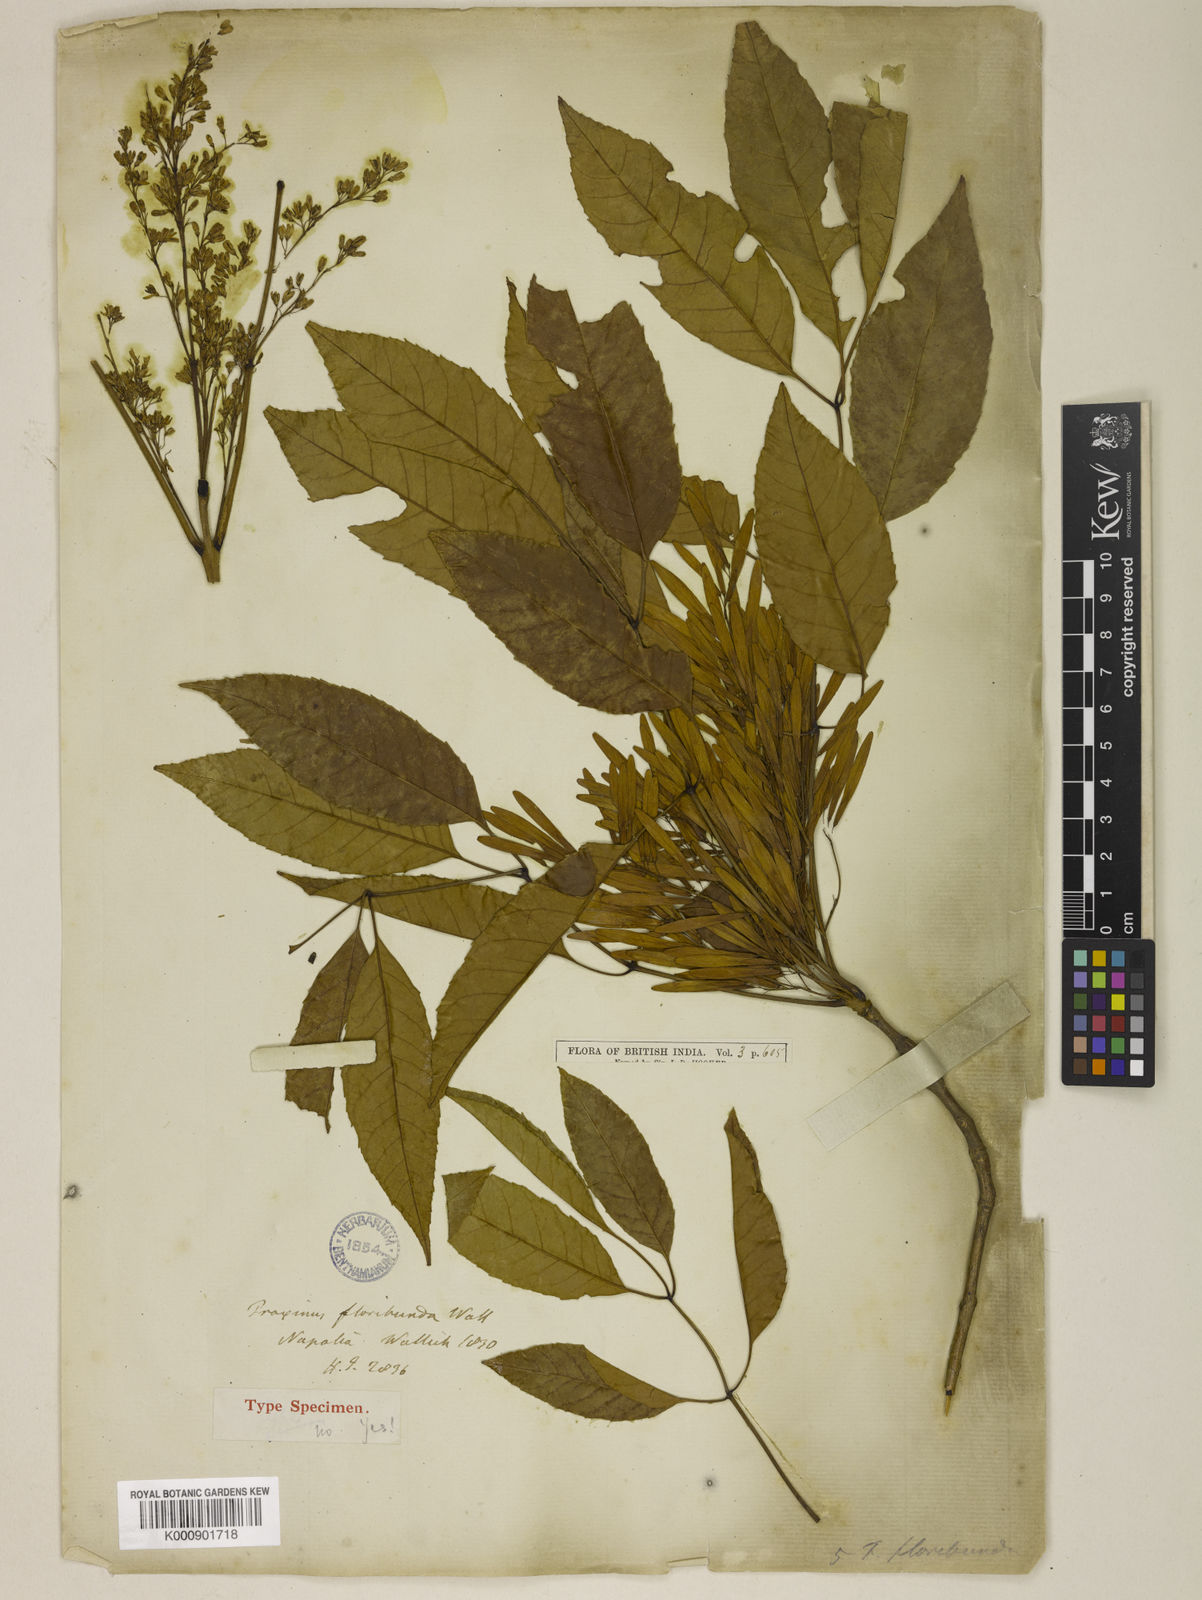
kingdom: Plantae
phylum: Tracheophyta
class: Magnoliopsida
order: Lamiales
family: Oleaceae
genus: Fraxinus
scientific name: Fraxinus floribunda
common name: East indian ash
